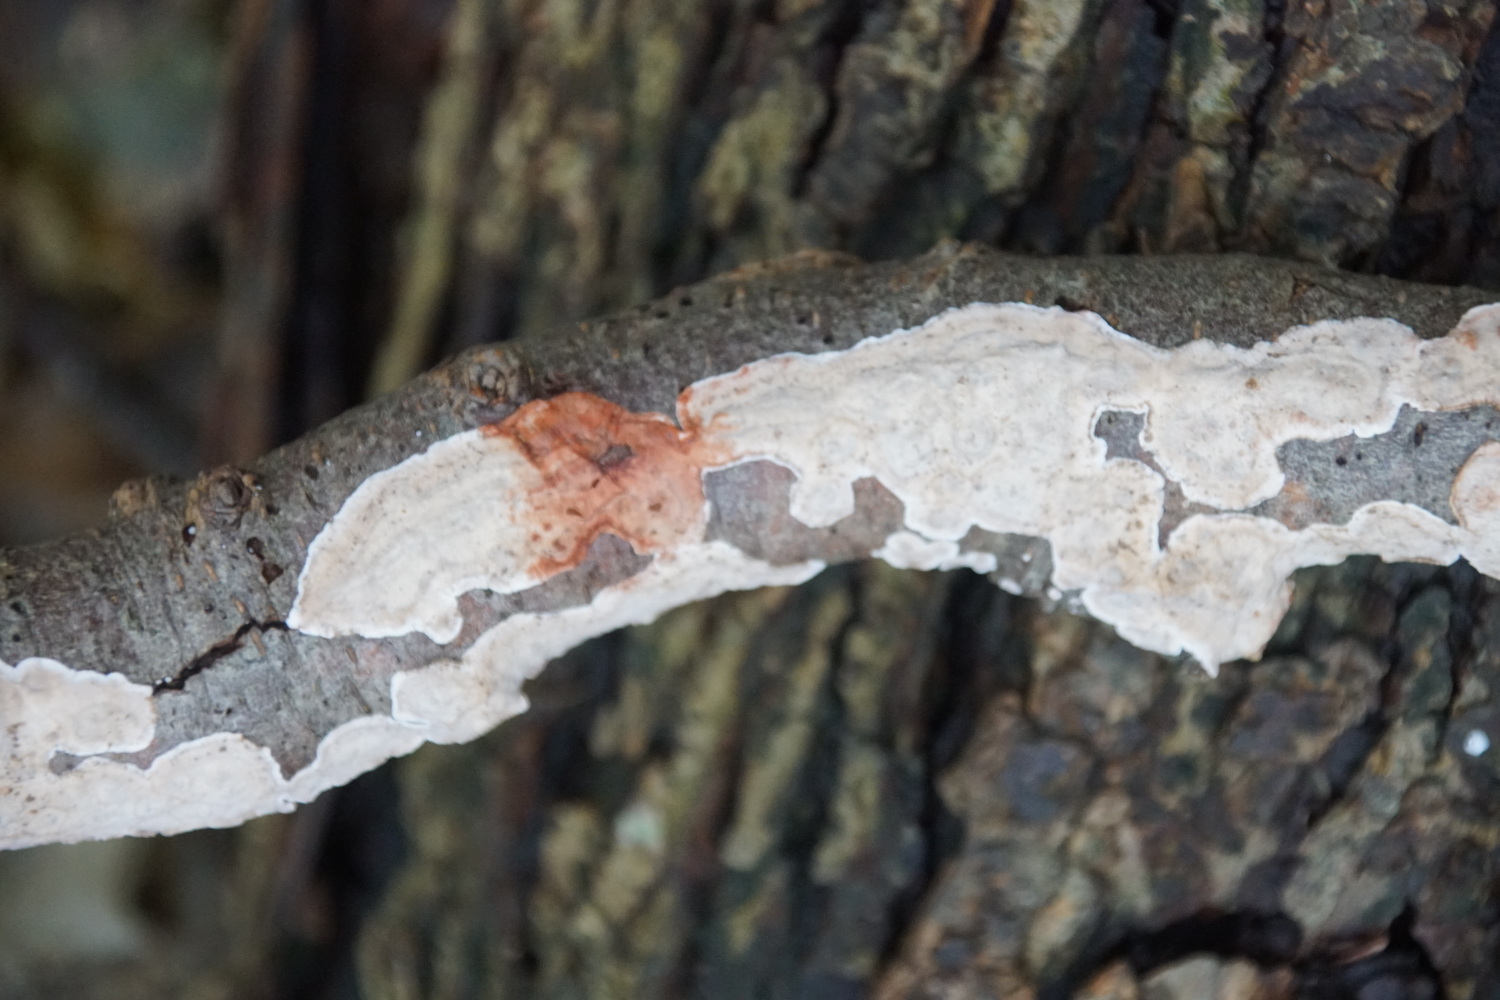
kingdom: Fungi
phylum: Basidiomycota
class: Agaricomycetes
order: Russulales
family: Stereaceae
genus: Stereum
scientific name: Stereum rugosum
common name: rynket lædersvamp
